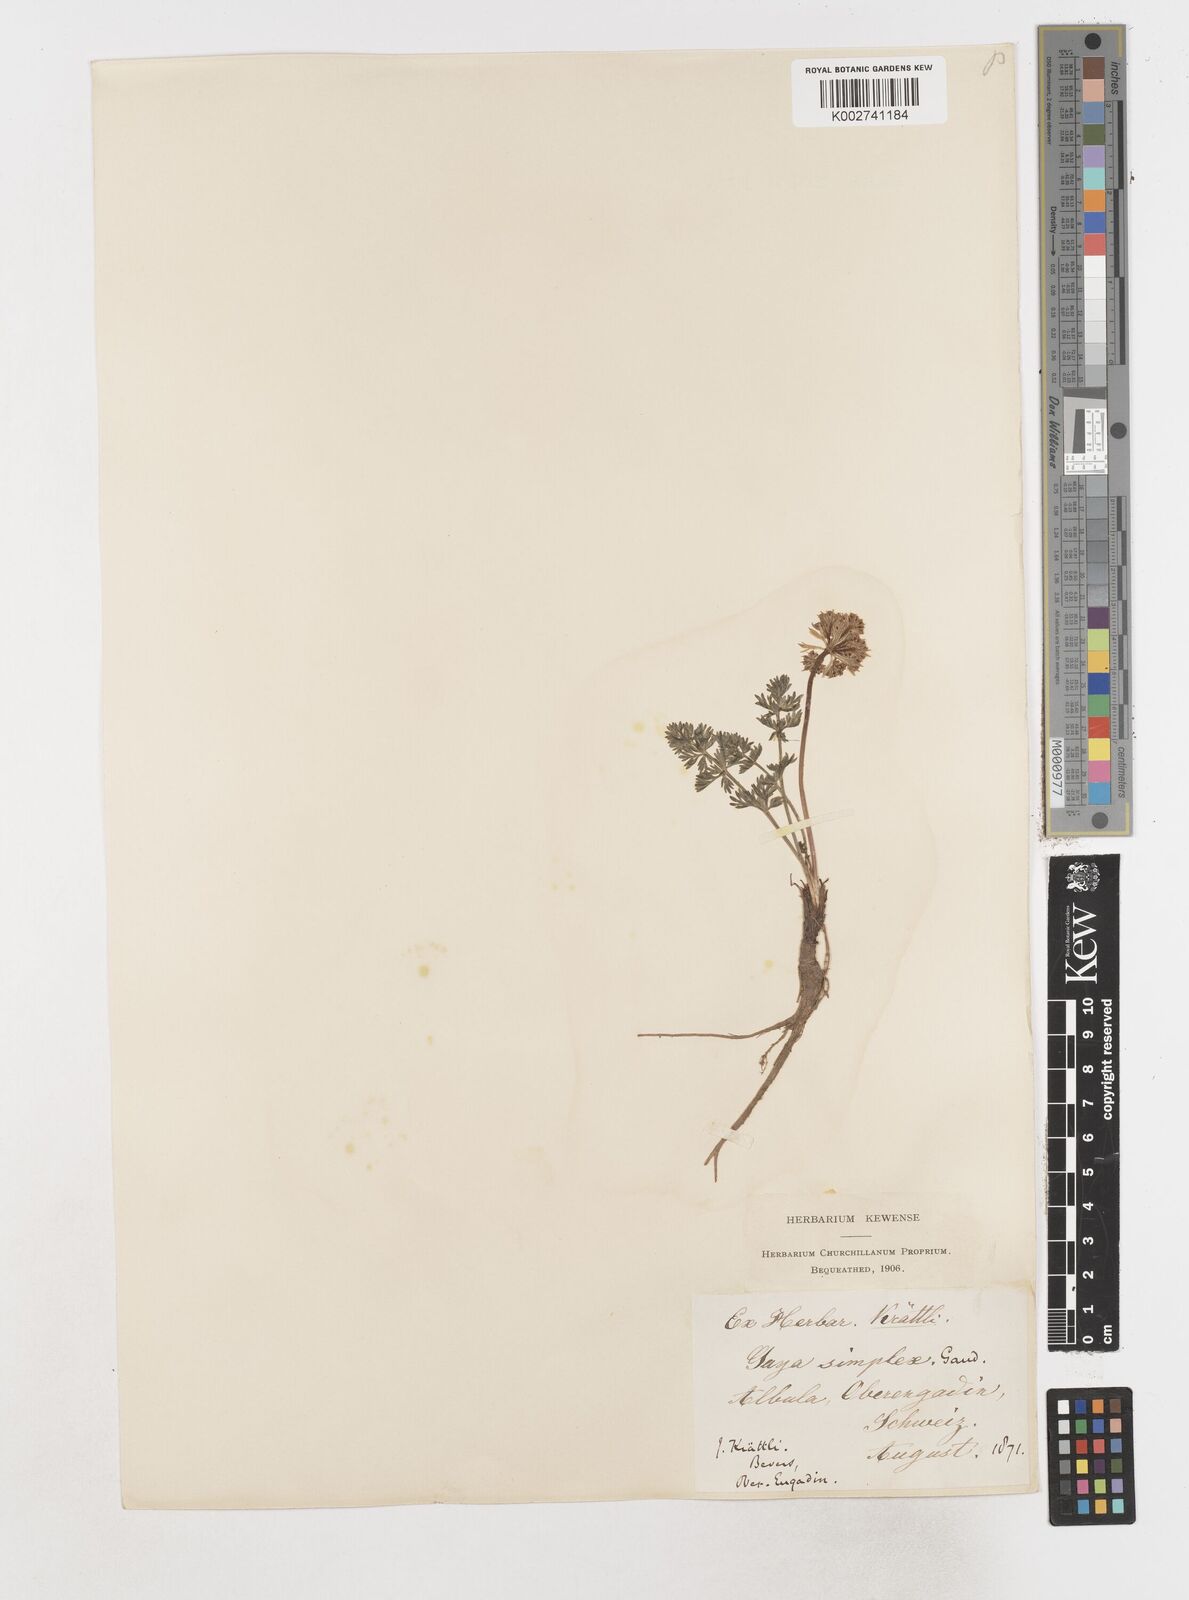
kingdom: Plantae
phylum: Tracheophyta
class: Magnoliopsida
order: Apiales
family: Apiaceae
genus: Pachypleurum
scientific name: Pachypleurum mutellinoides
